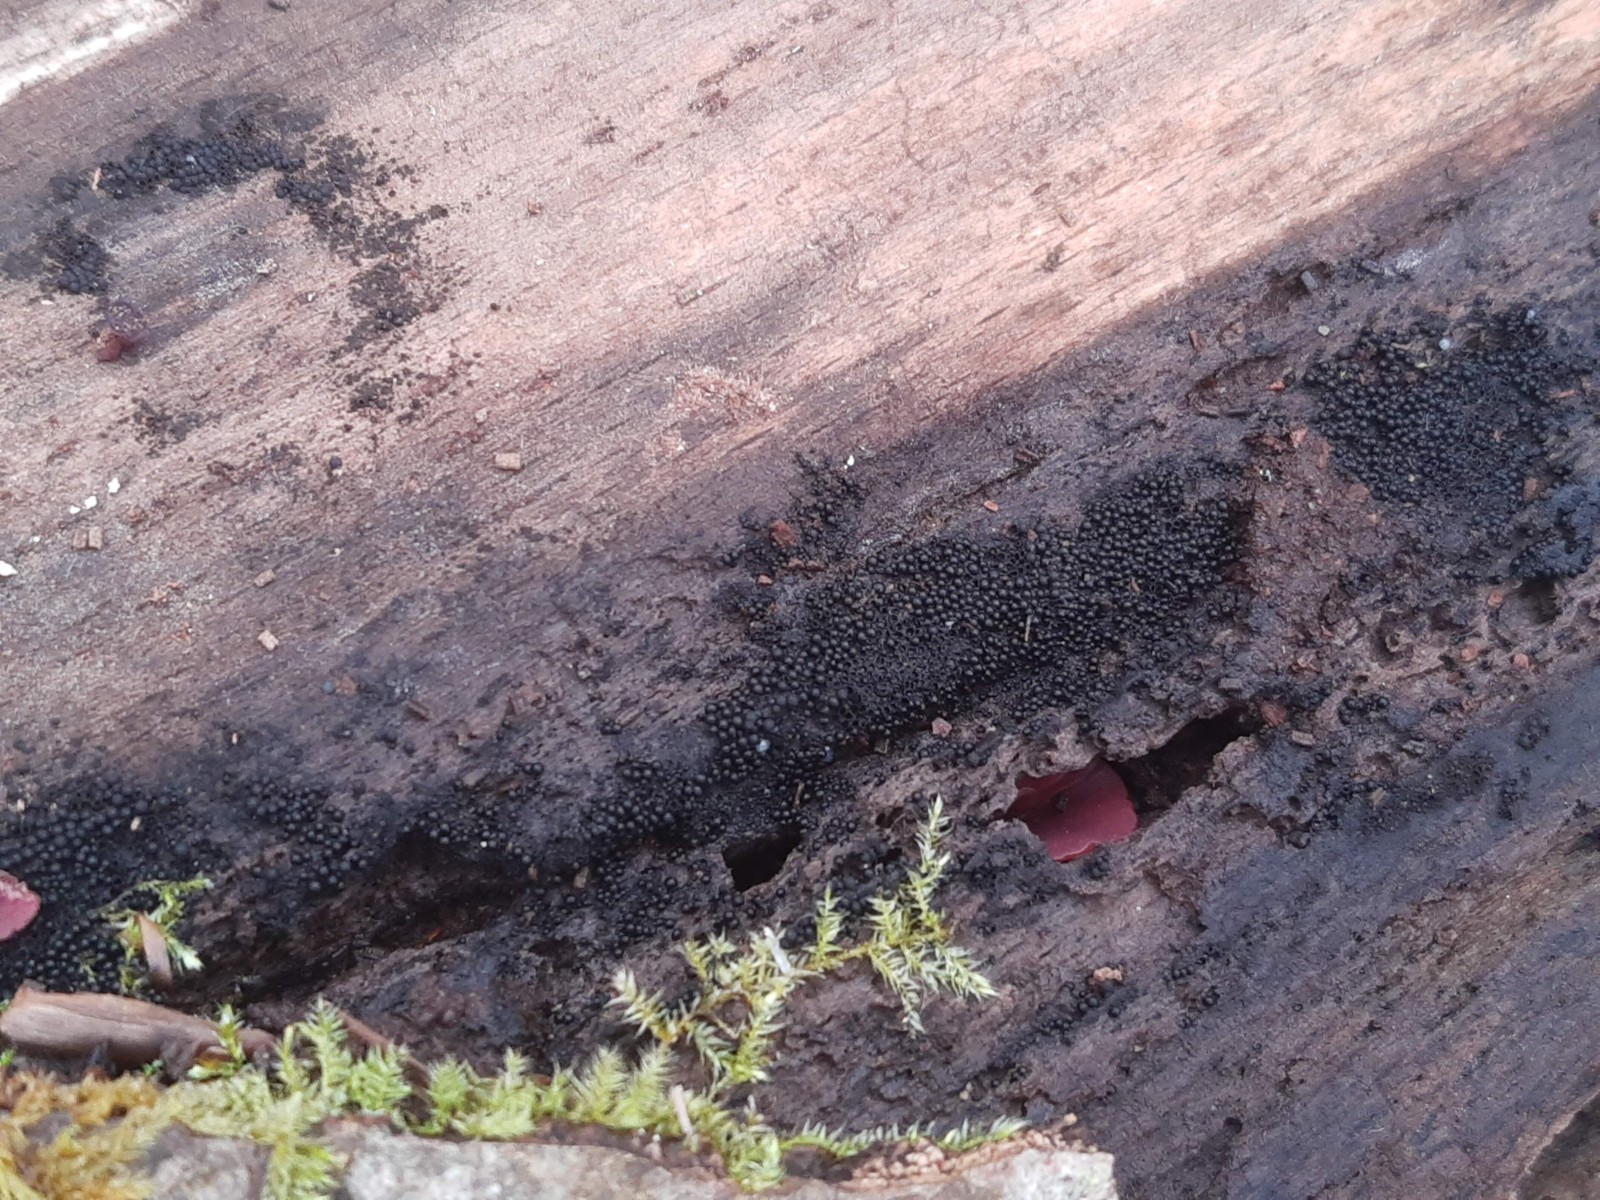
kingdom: Fungi
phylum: Ascomycota
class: Sordariomycetes
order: Sordariales
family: Helminthosphaeriaceae
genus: Ruzenia
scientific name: Ruzenia spermoides
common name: glat børstekerne
